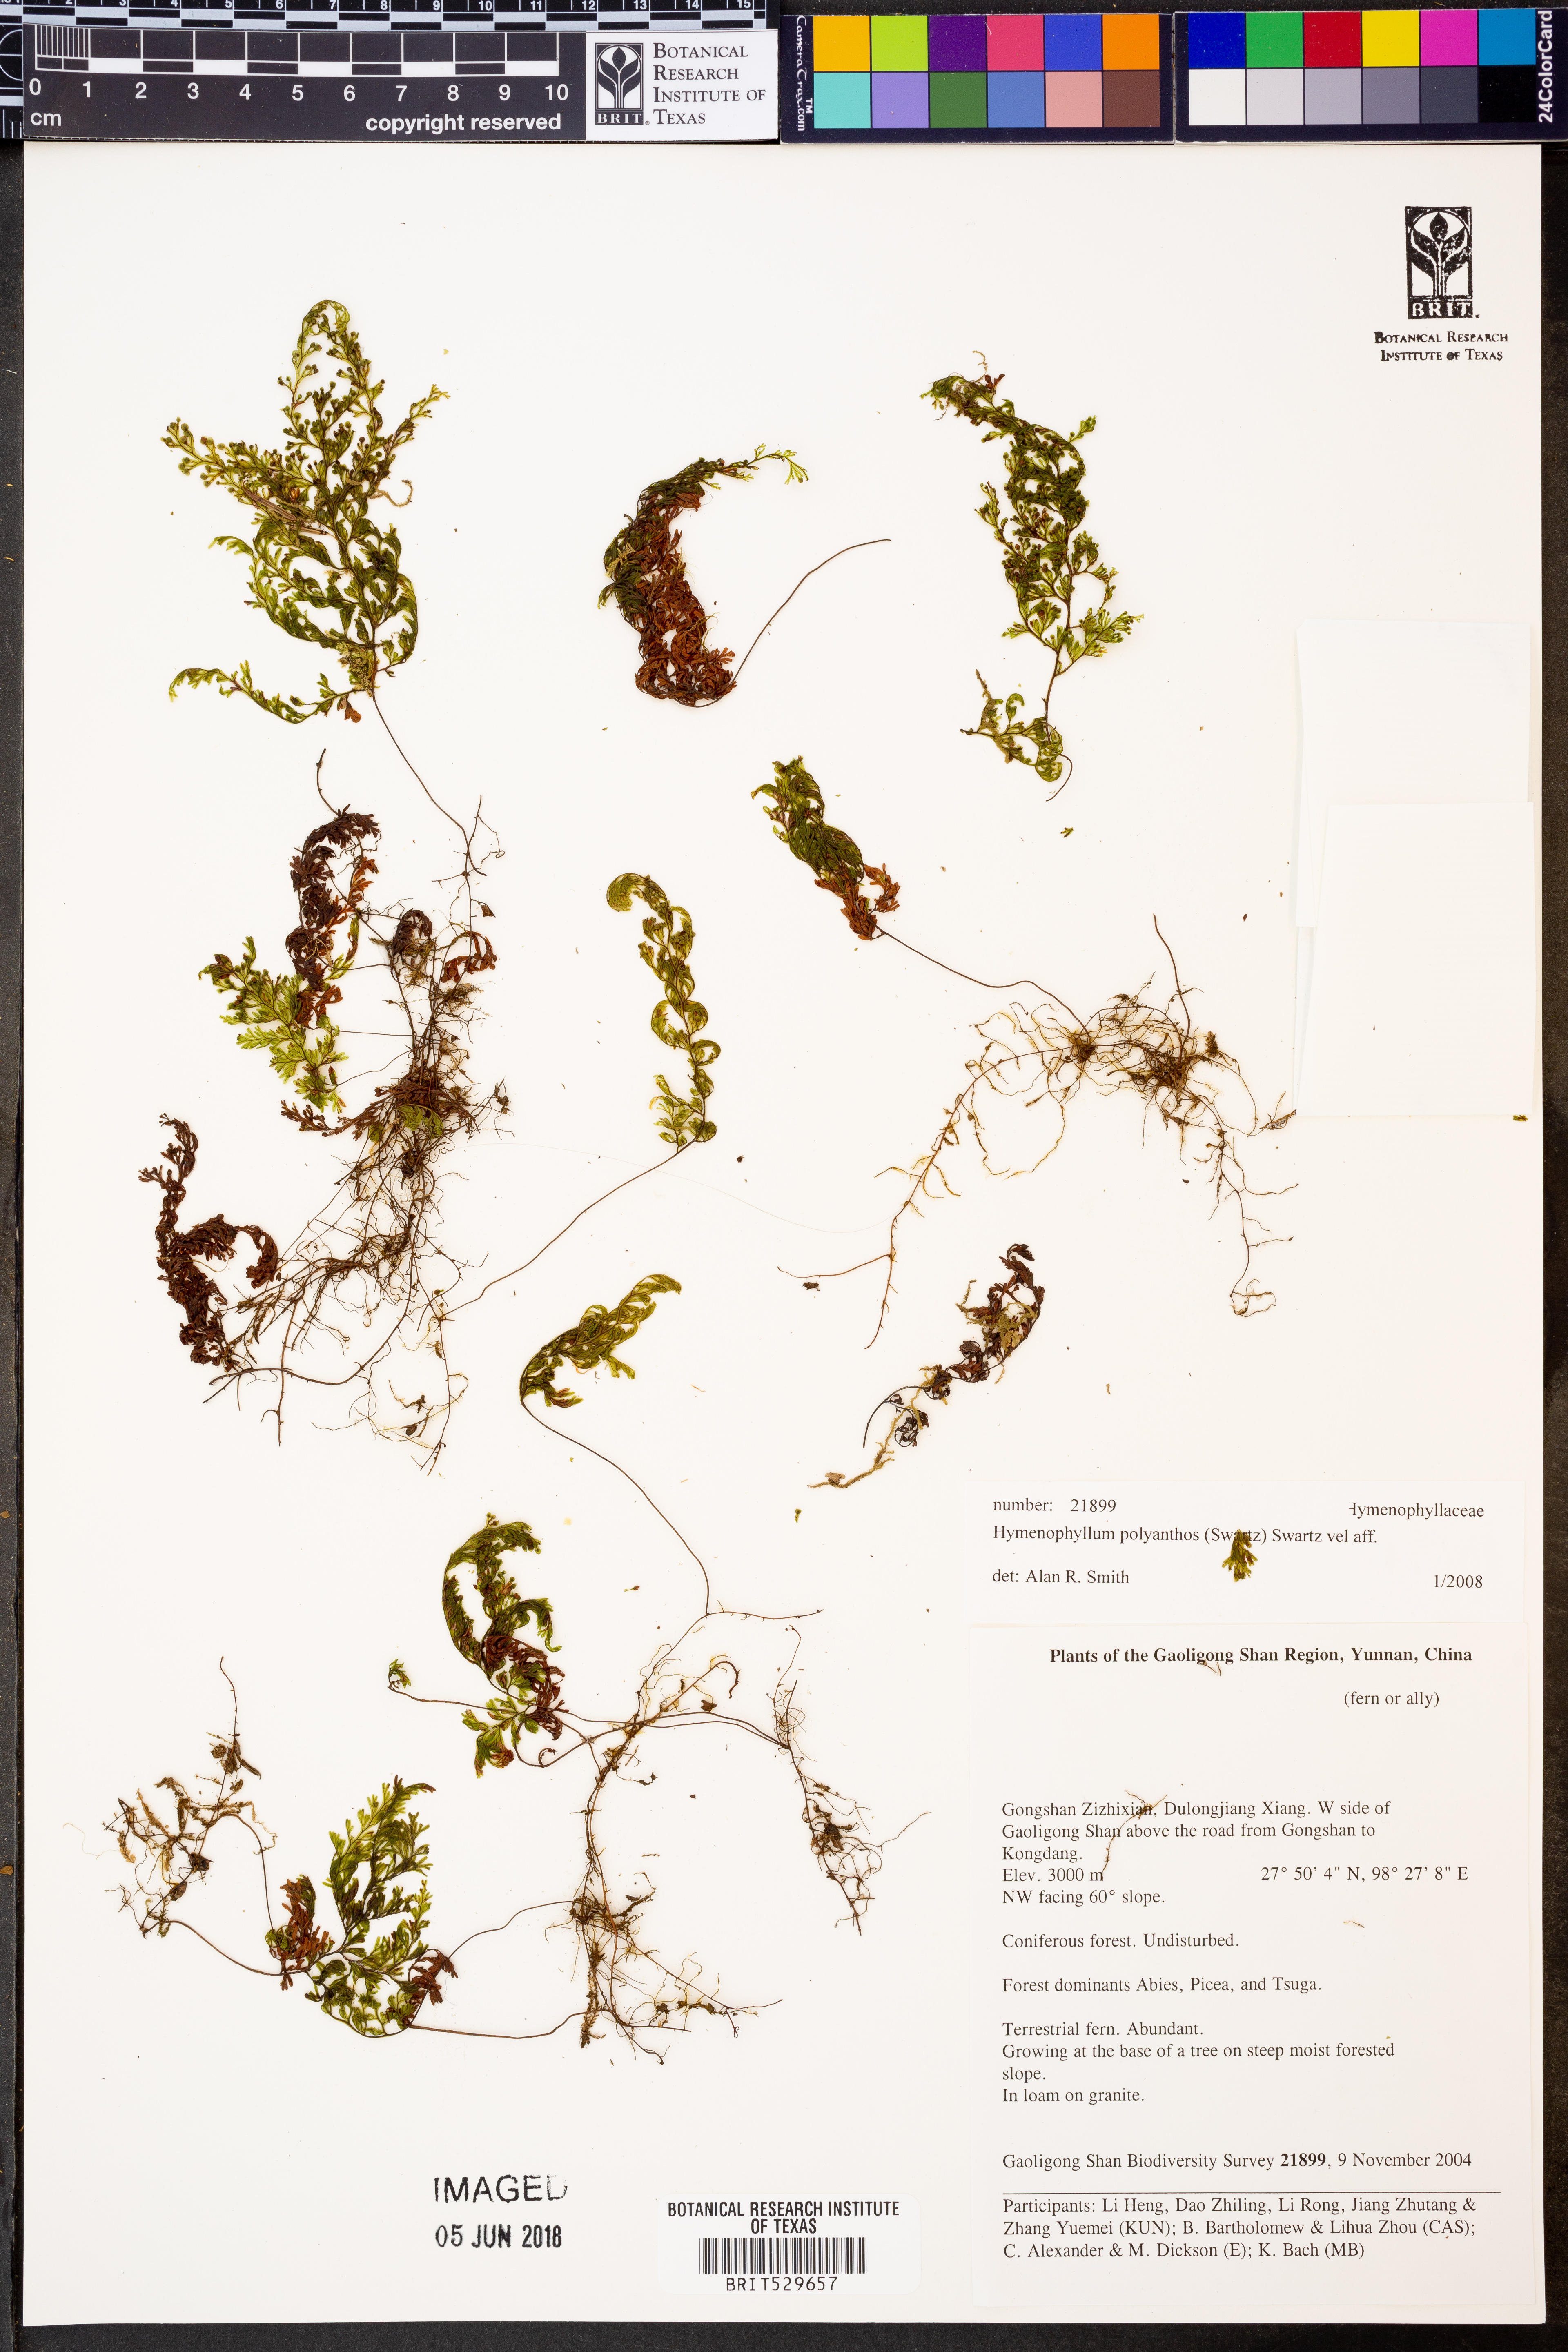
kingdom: Plantae
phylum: Tracheophyta
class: Polypodiopsida
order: Hymenophyllales
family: Hymenophyllaceae
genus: Hymenophyllum
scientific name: Hymenophyllum polyanthos
